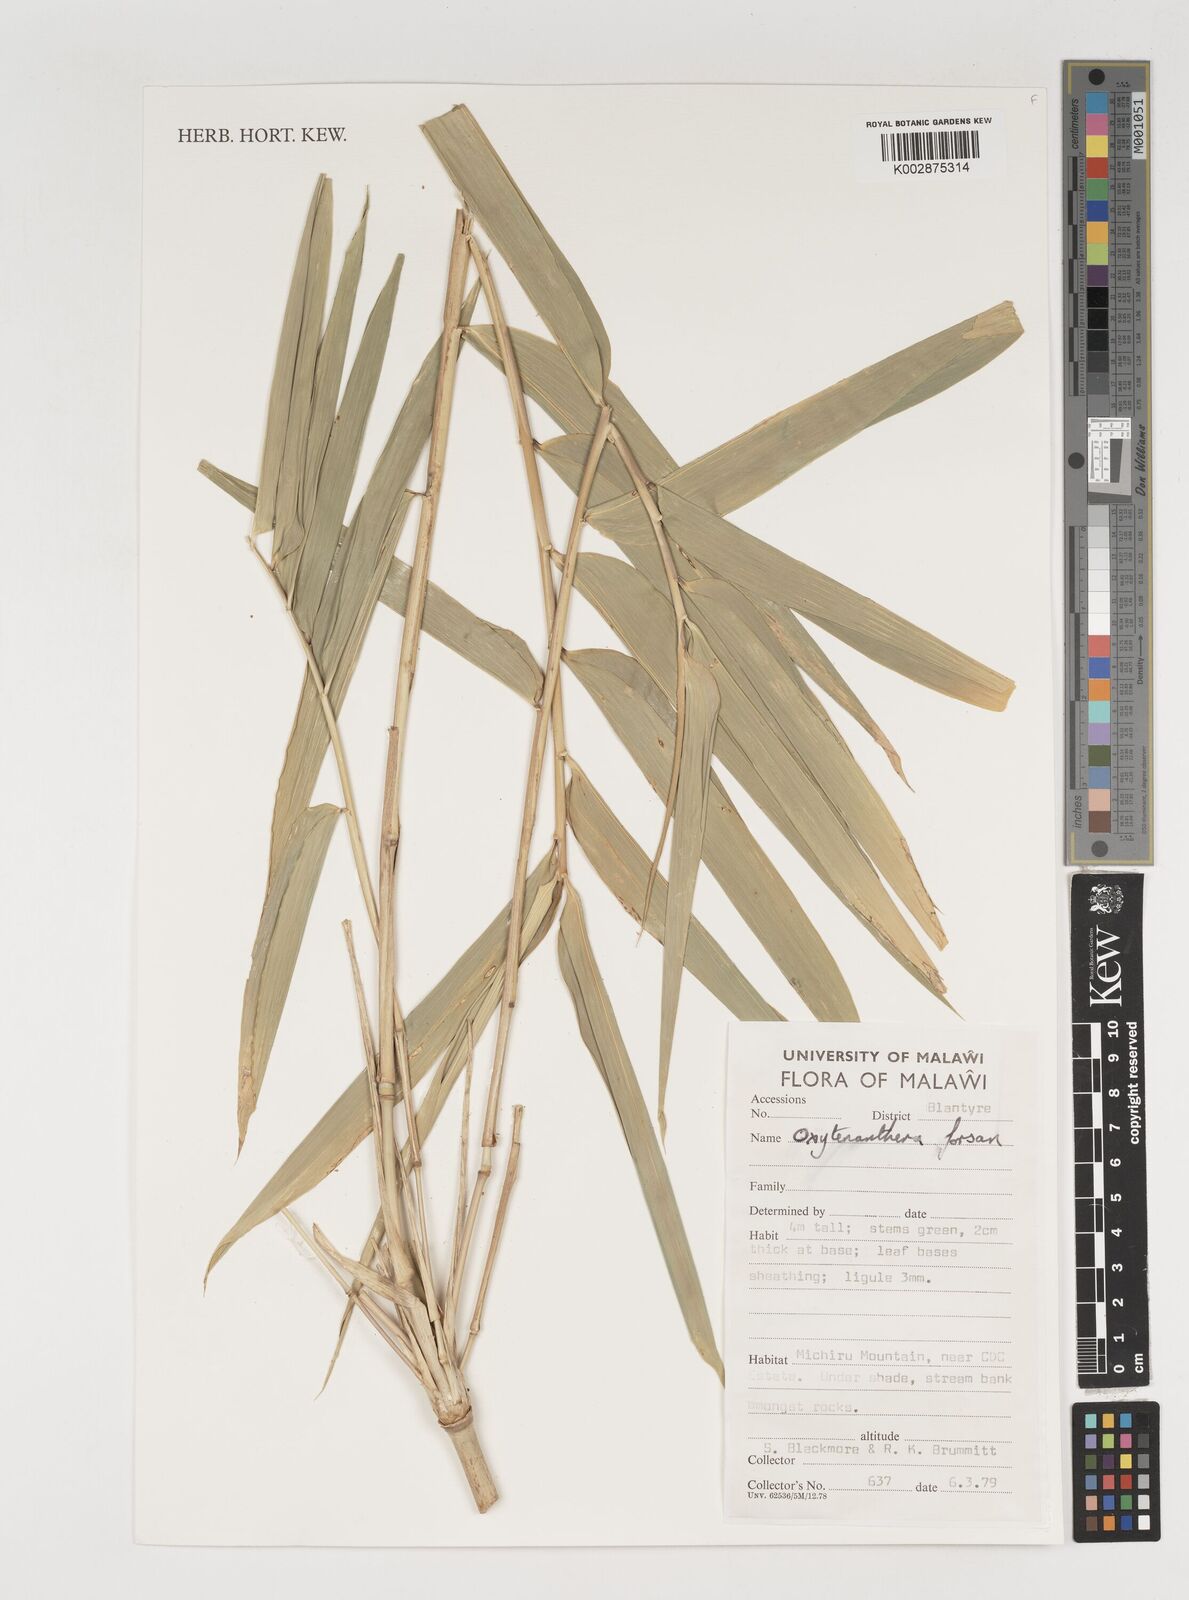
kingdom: Plantae
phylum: Tracheophyta
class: Liliopsida
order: Poales
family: Poaceae
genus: Oxytenanthera
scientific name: Oxytenanthera abyssinica
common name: Wine bamboo
